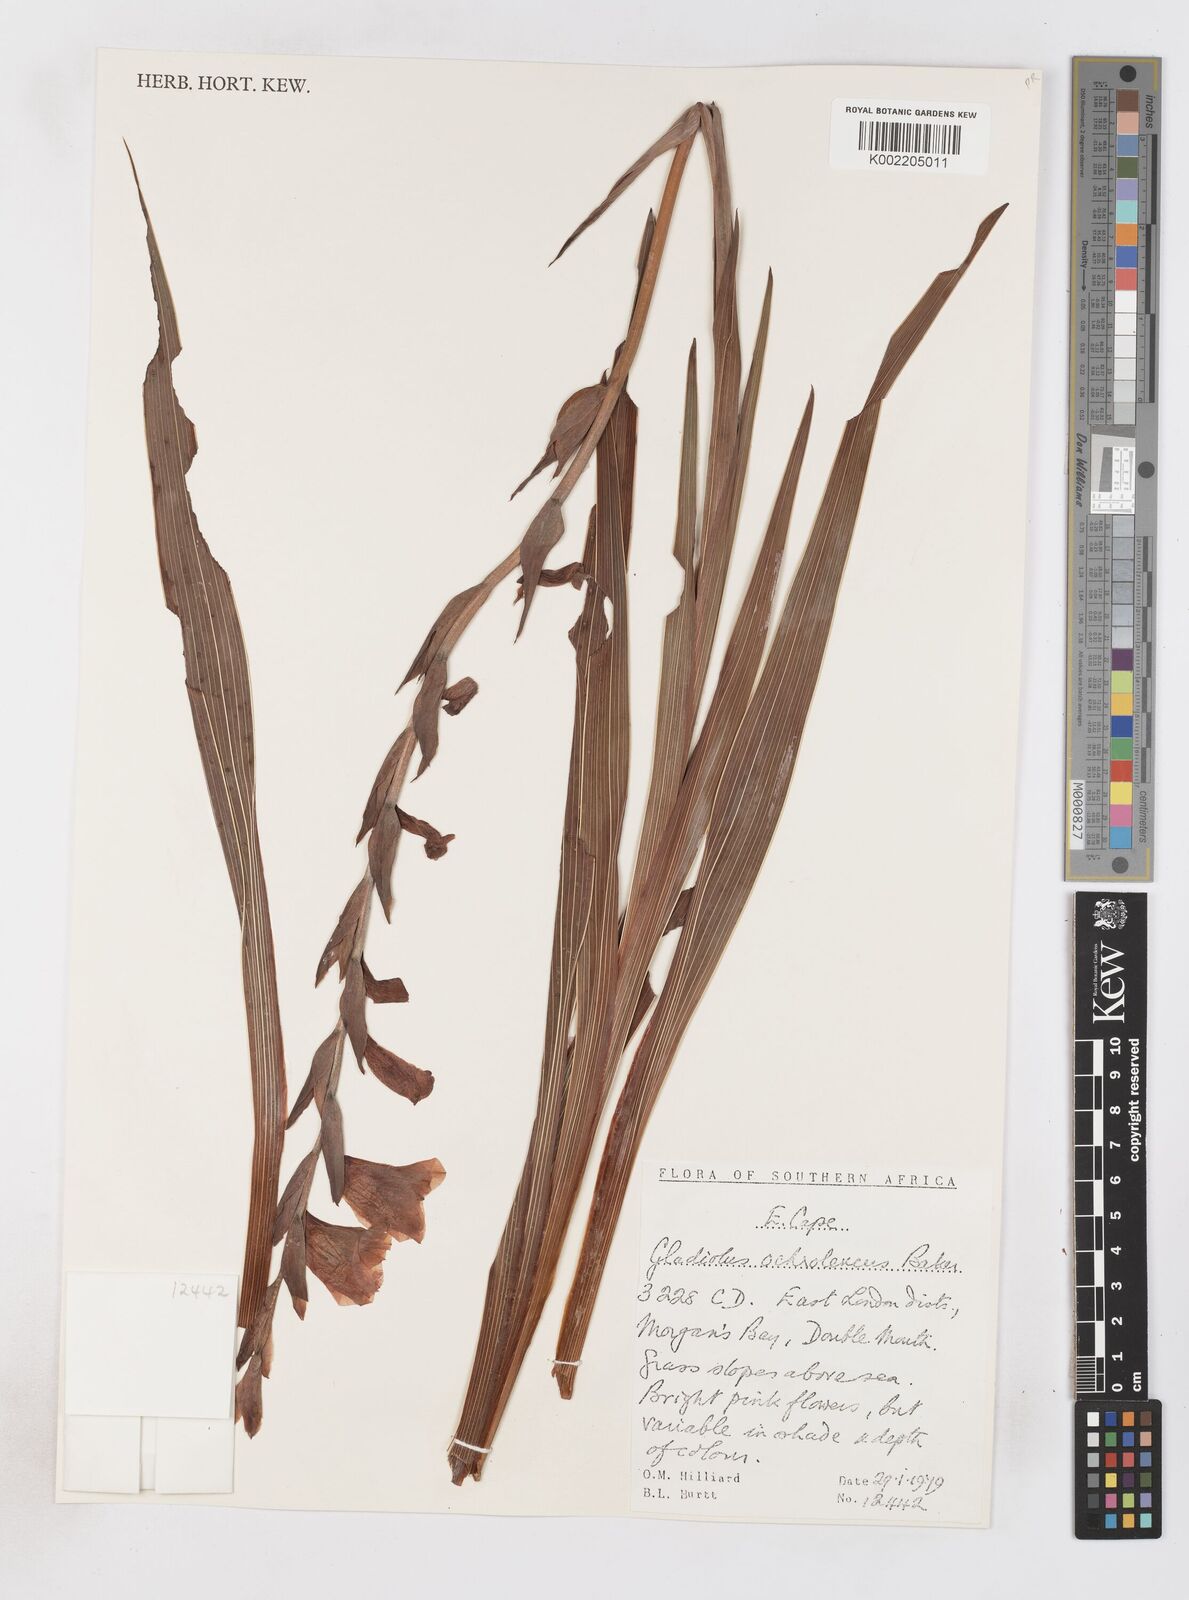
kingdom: Plantae
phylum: Tracheophyta
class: Liliopsida
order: Asparagales
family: Iridaceae
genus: Gladiolus
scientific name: Gladiolus ochroleucus
